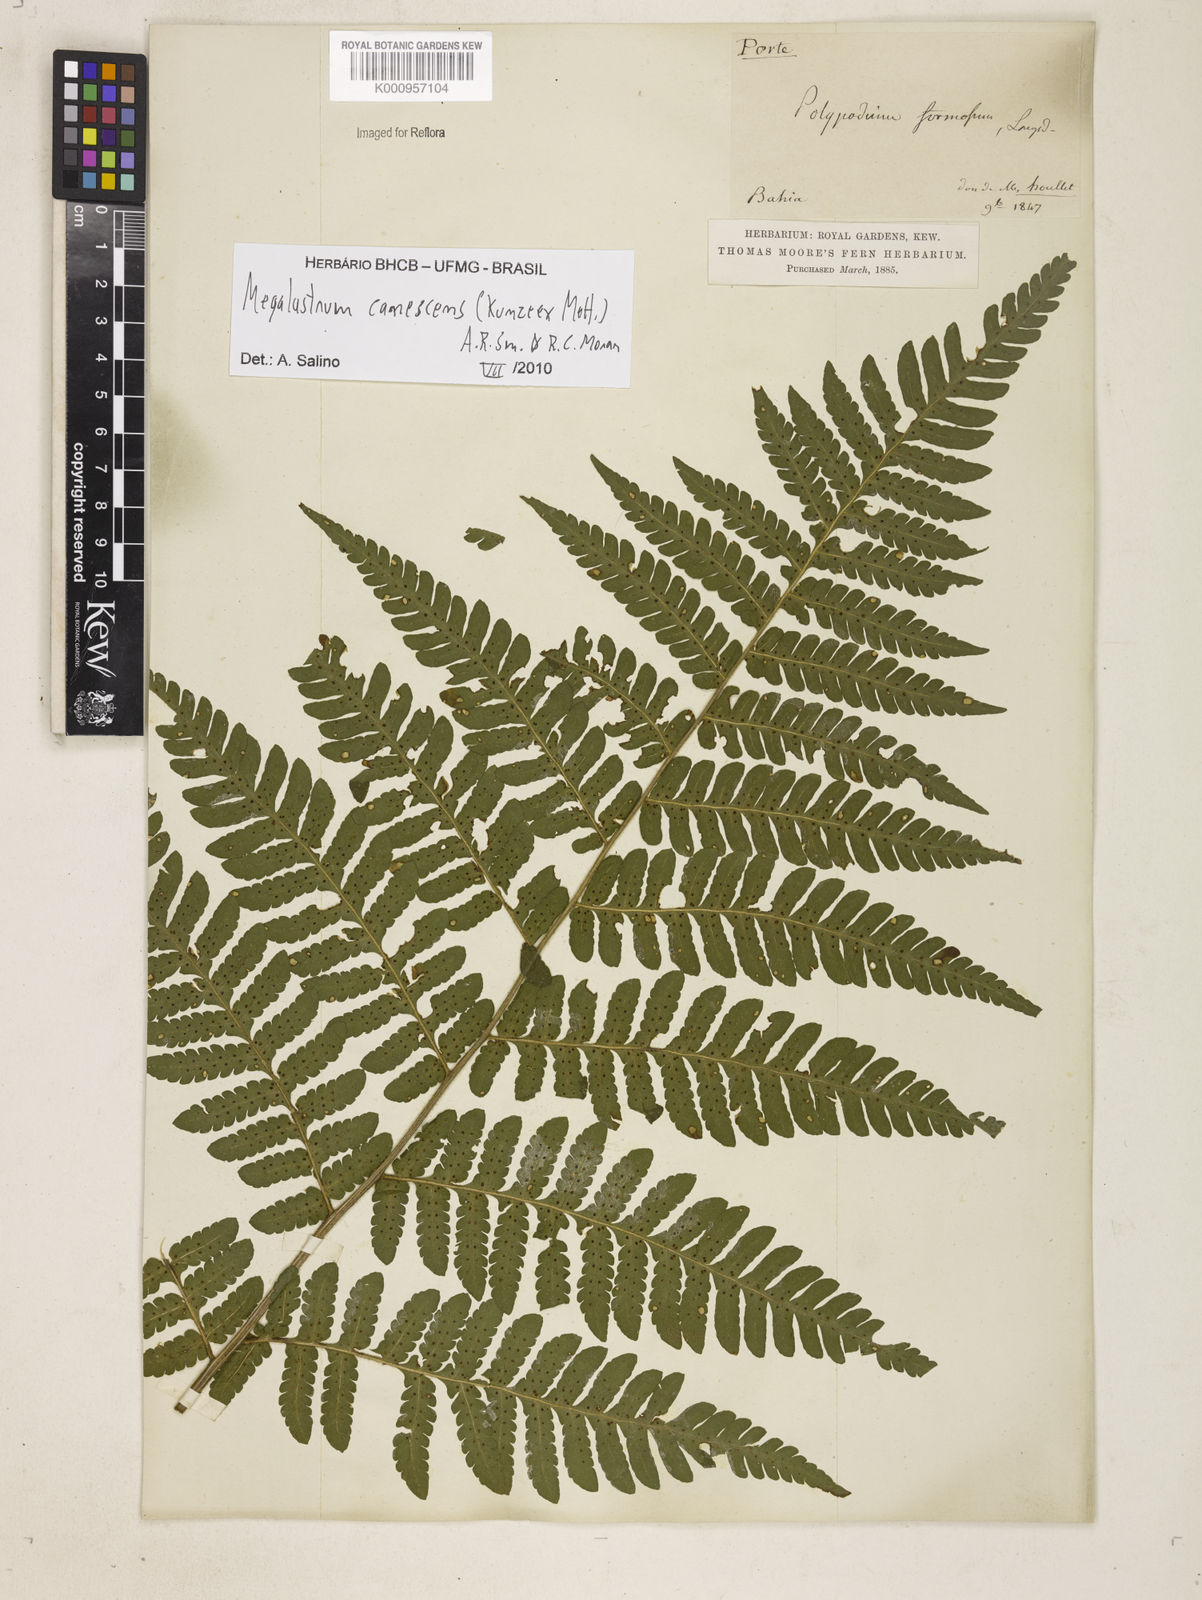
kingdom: Plantae
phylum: Tracheophyta
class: Polypodiopsida
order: Polypodiales
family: Dryopteridaceae
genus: Megalastrum
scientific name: Megalastrum
